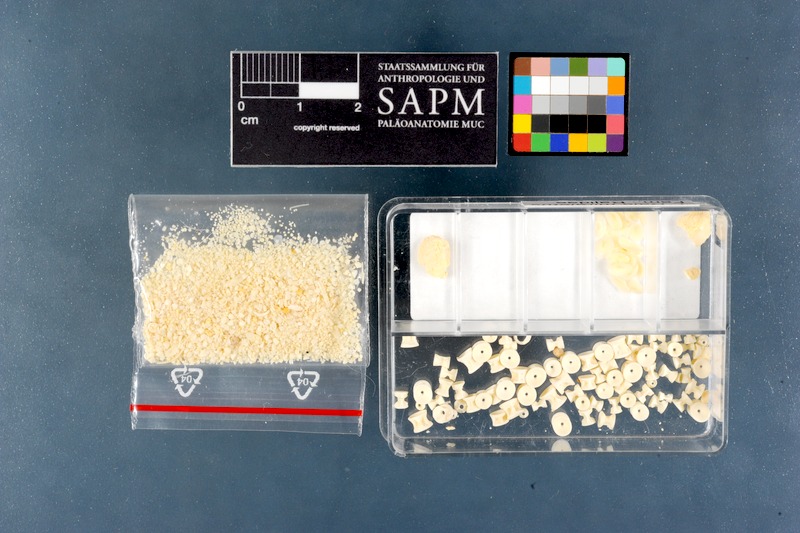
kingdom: Animalia
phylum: Chordata
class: Elasmobranchii
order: Rajiformes
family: Rajidae
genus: Raja
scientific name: Raja miraletus
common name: Brown ray
